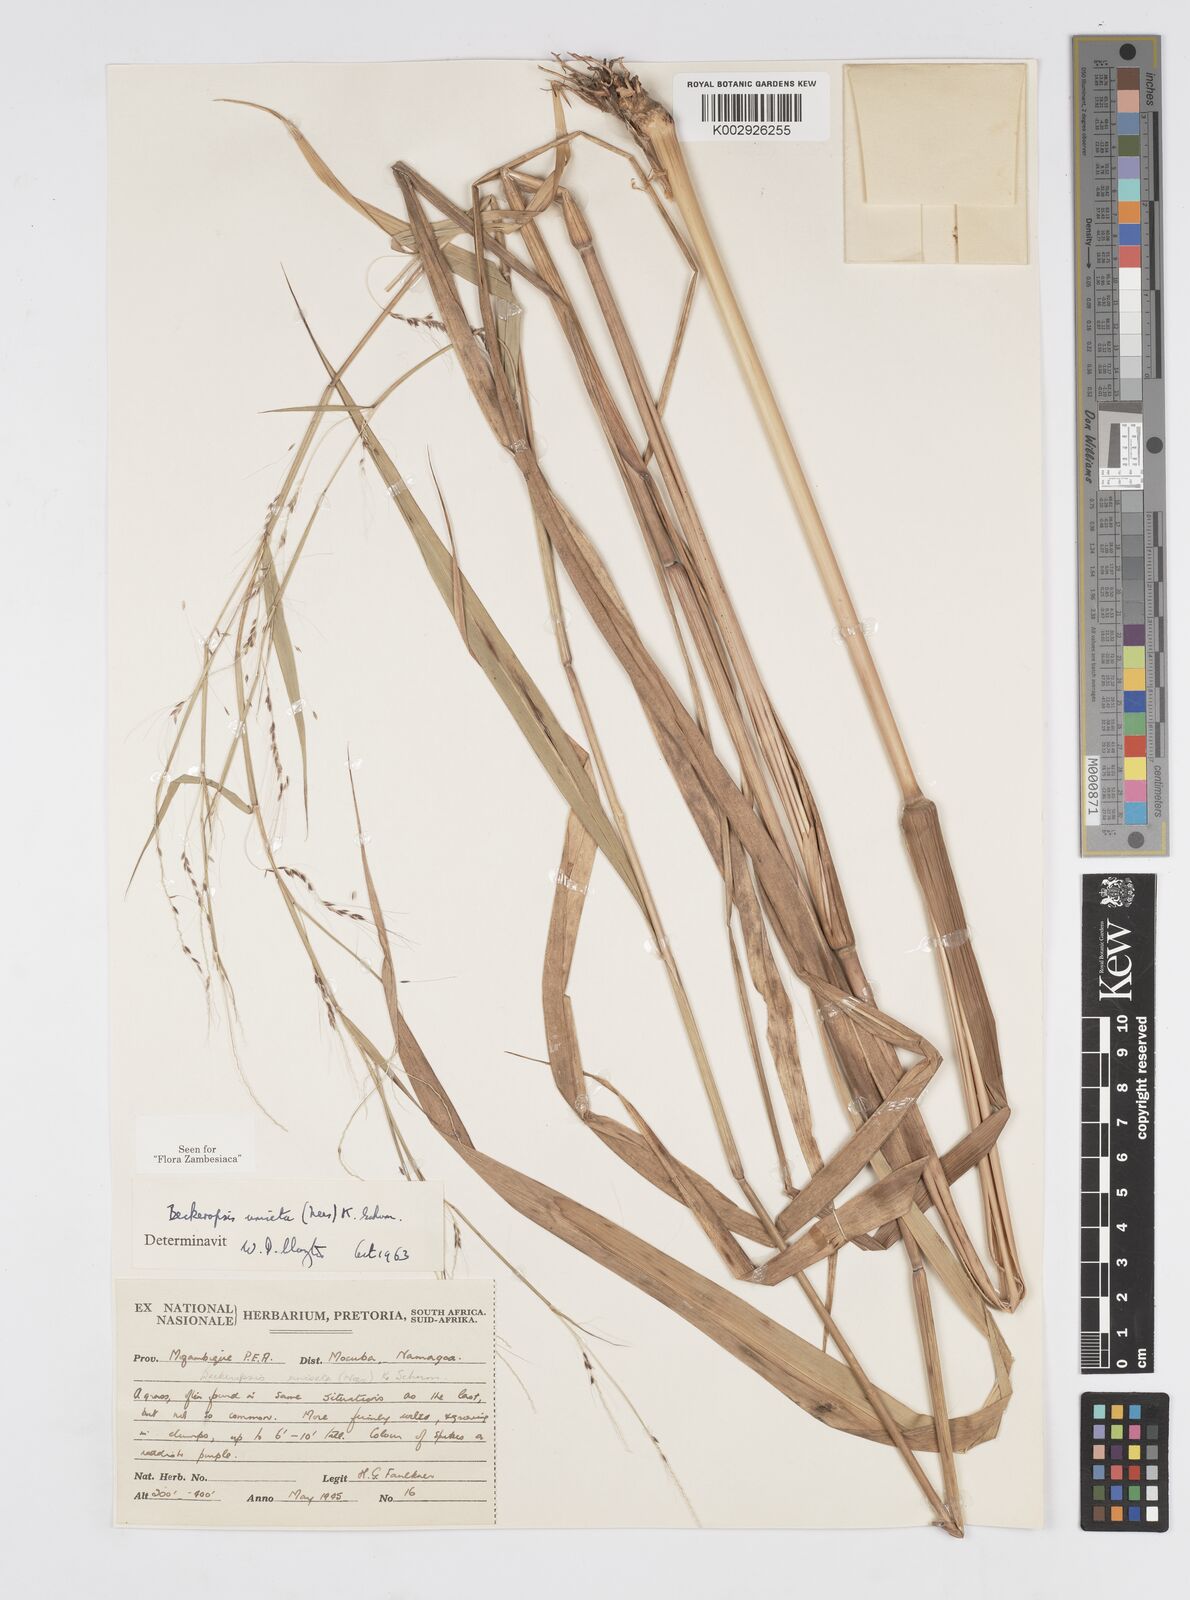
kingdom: Plantae
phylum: Tracheophyta
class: Liliopsida
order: Poales
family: Poaceae
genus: Cenchrus
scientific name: Cenchrus unisetus
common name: Natal grass
